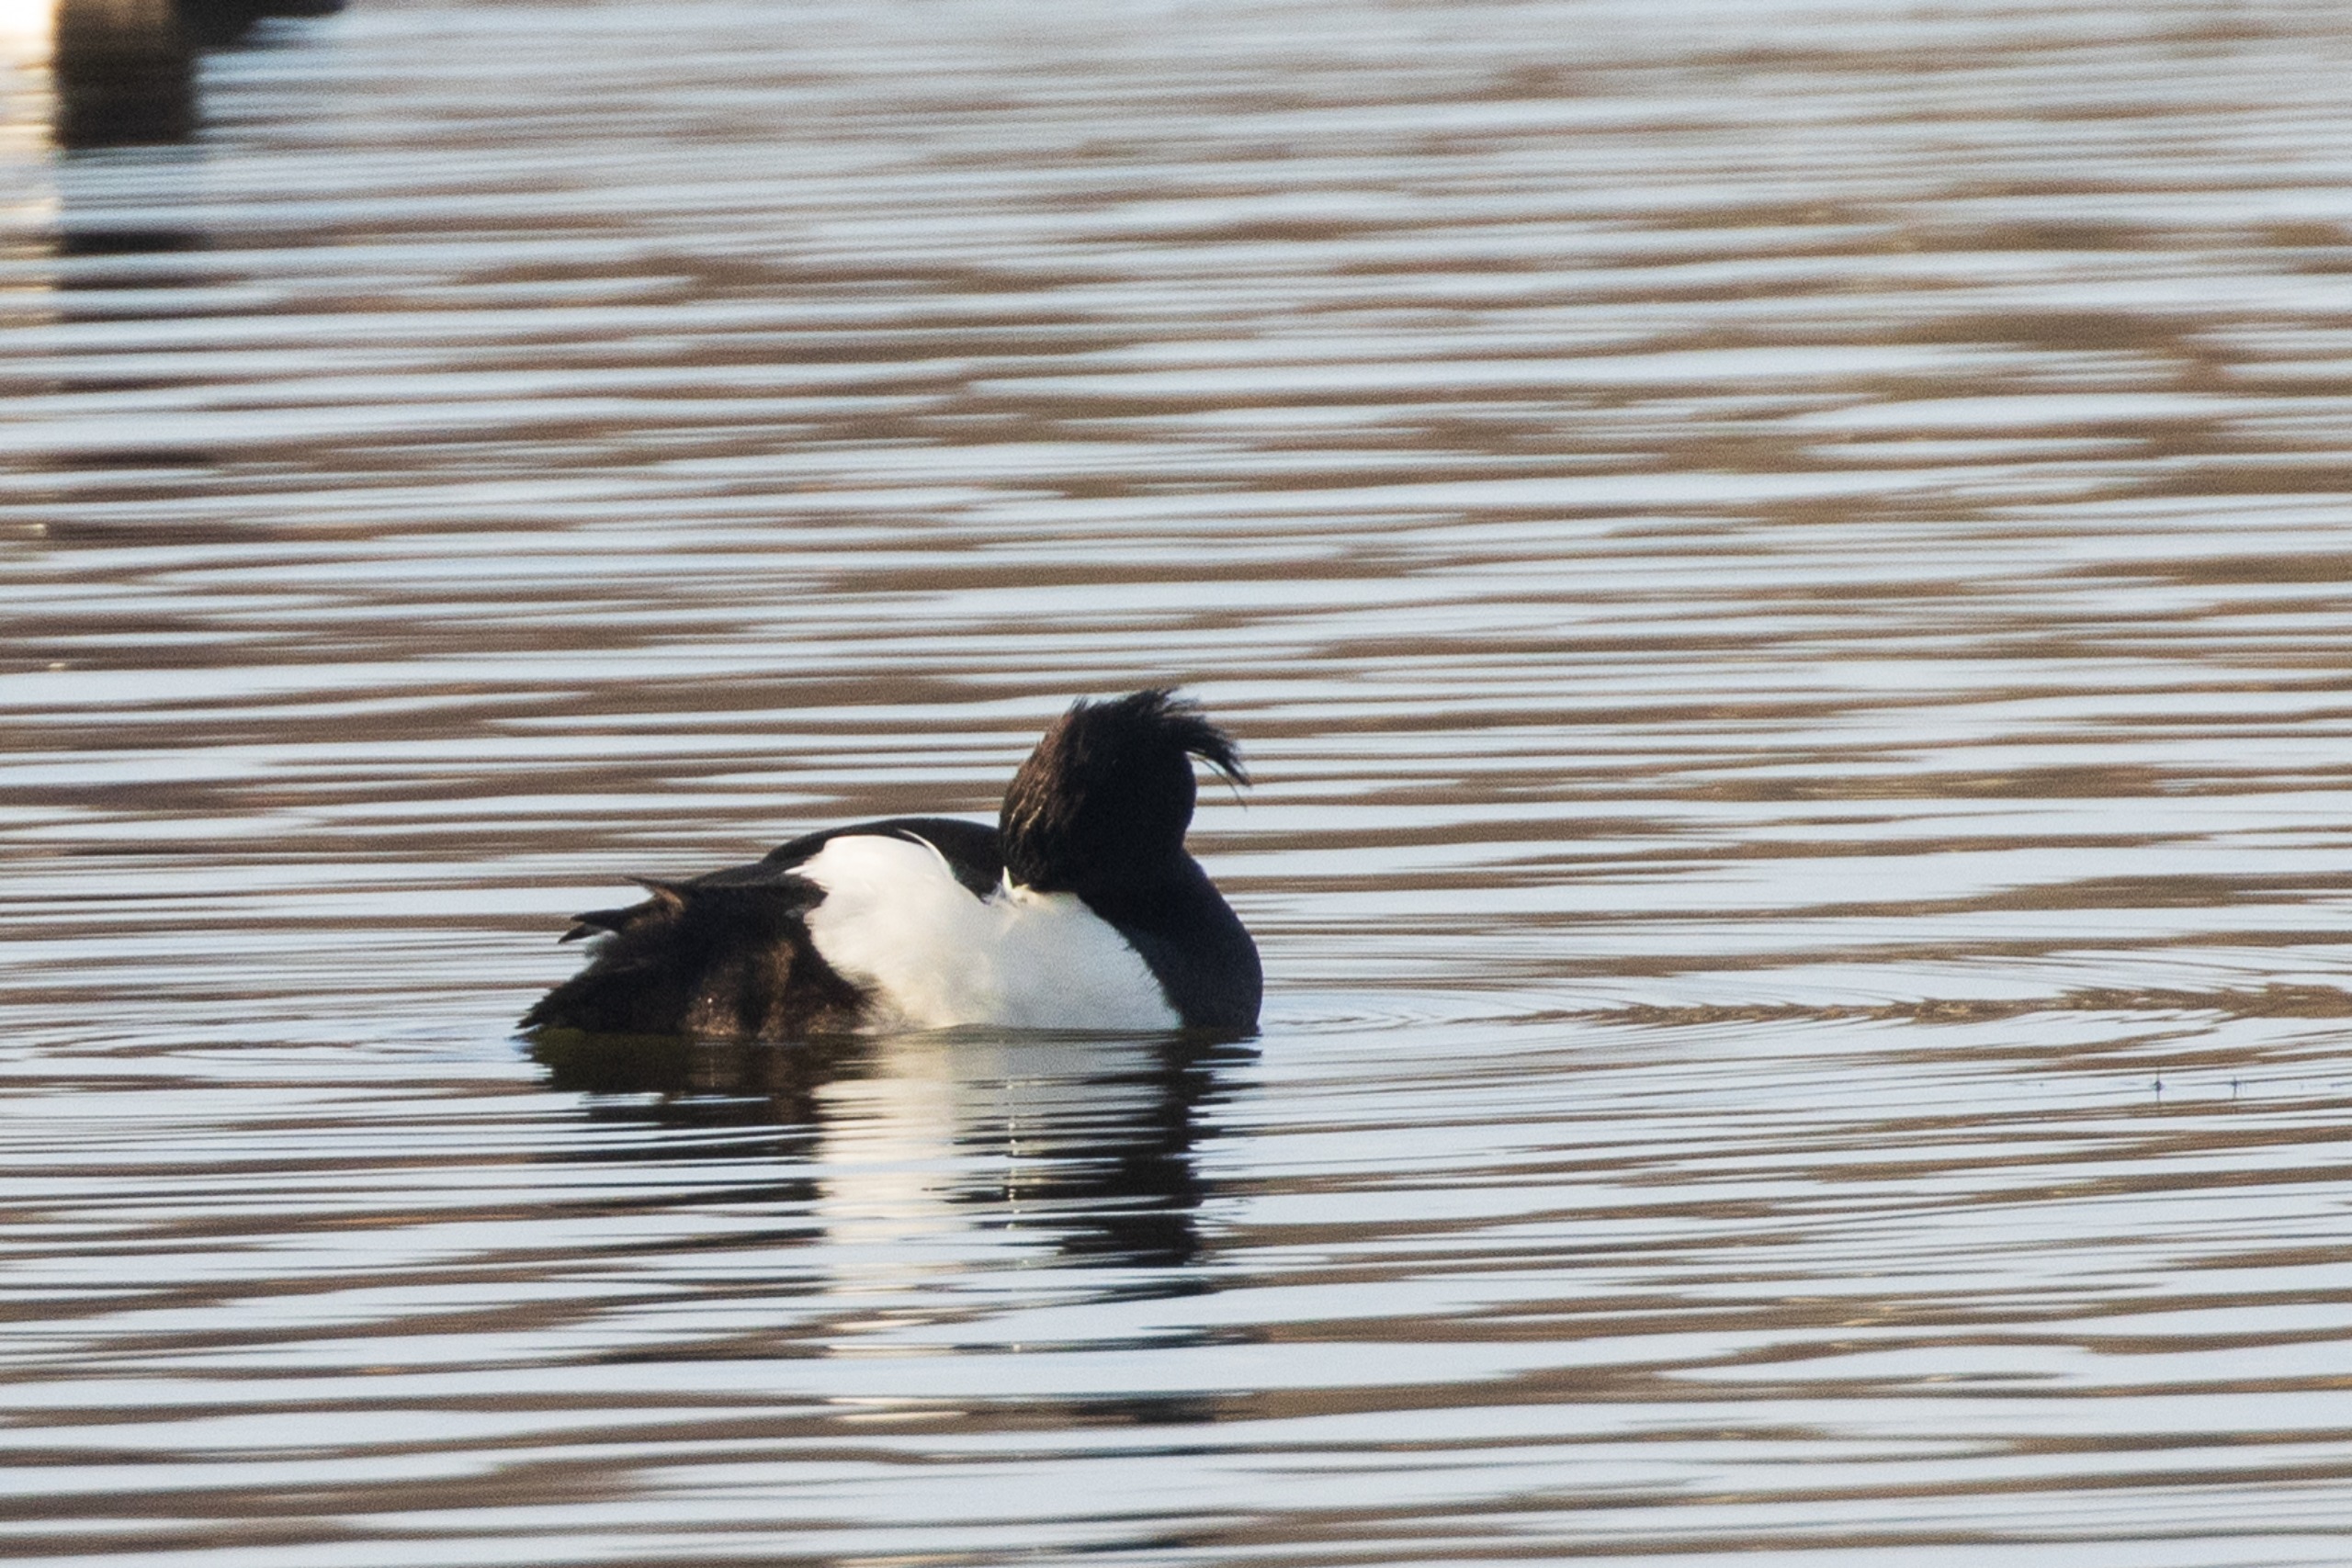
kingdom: Animalia
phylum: Chordata
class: Aves
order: Anseriformes
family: Anatidae
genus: Aythya
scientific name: Aythya fuligula
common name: Troldand
